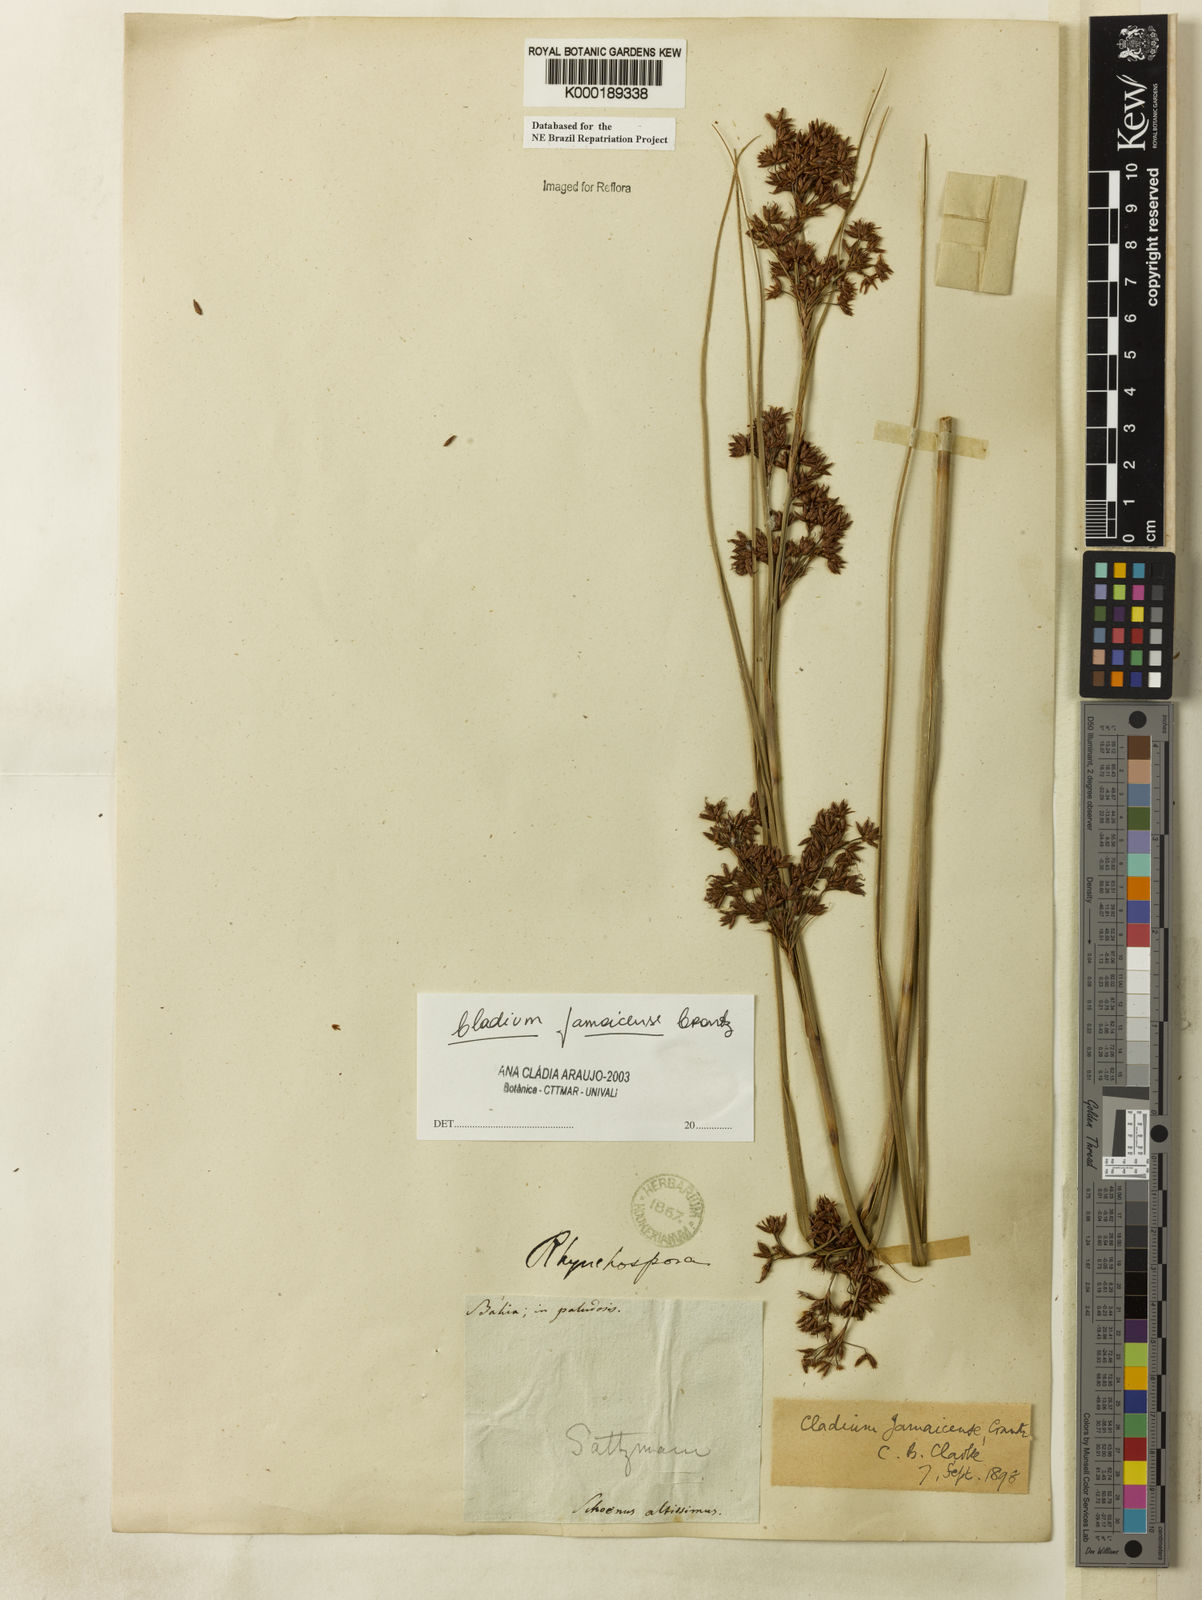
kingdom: Plantae
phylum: Tracheophyta
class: Liliopsida
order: Poales
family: Cyperaceae
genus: Cladium
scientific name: Cladium mariscus
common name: Great fen-sedge
